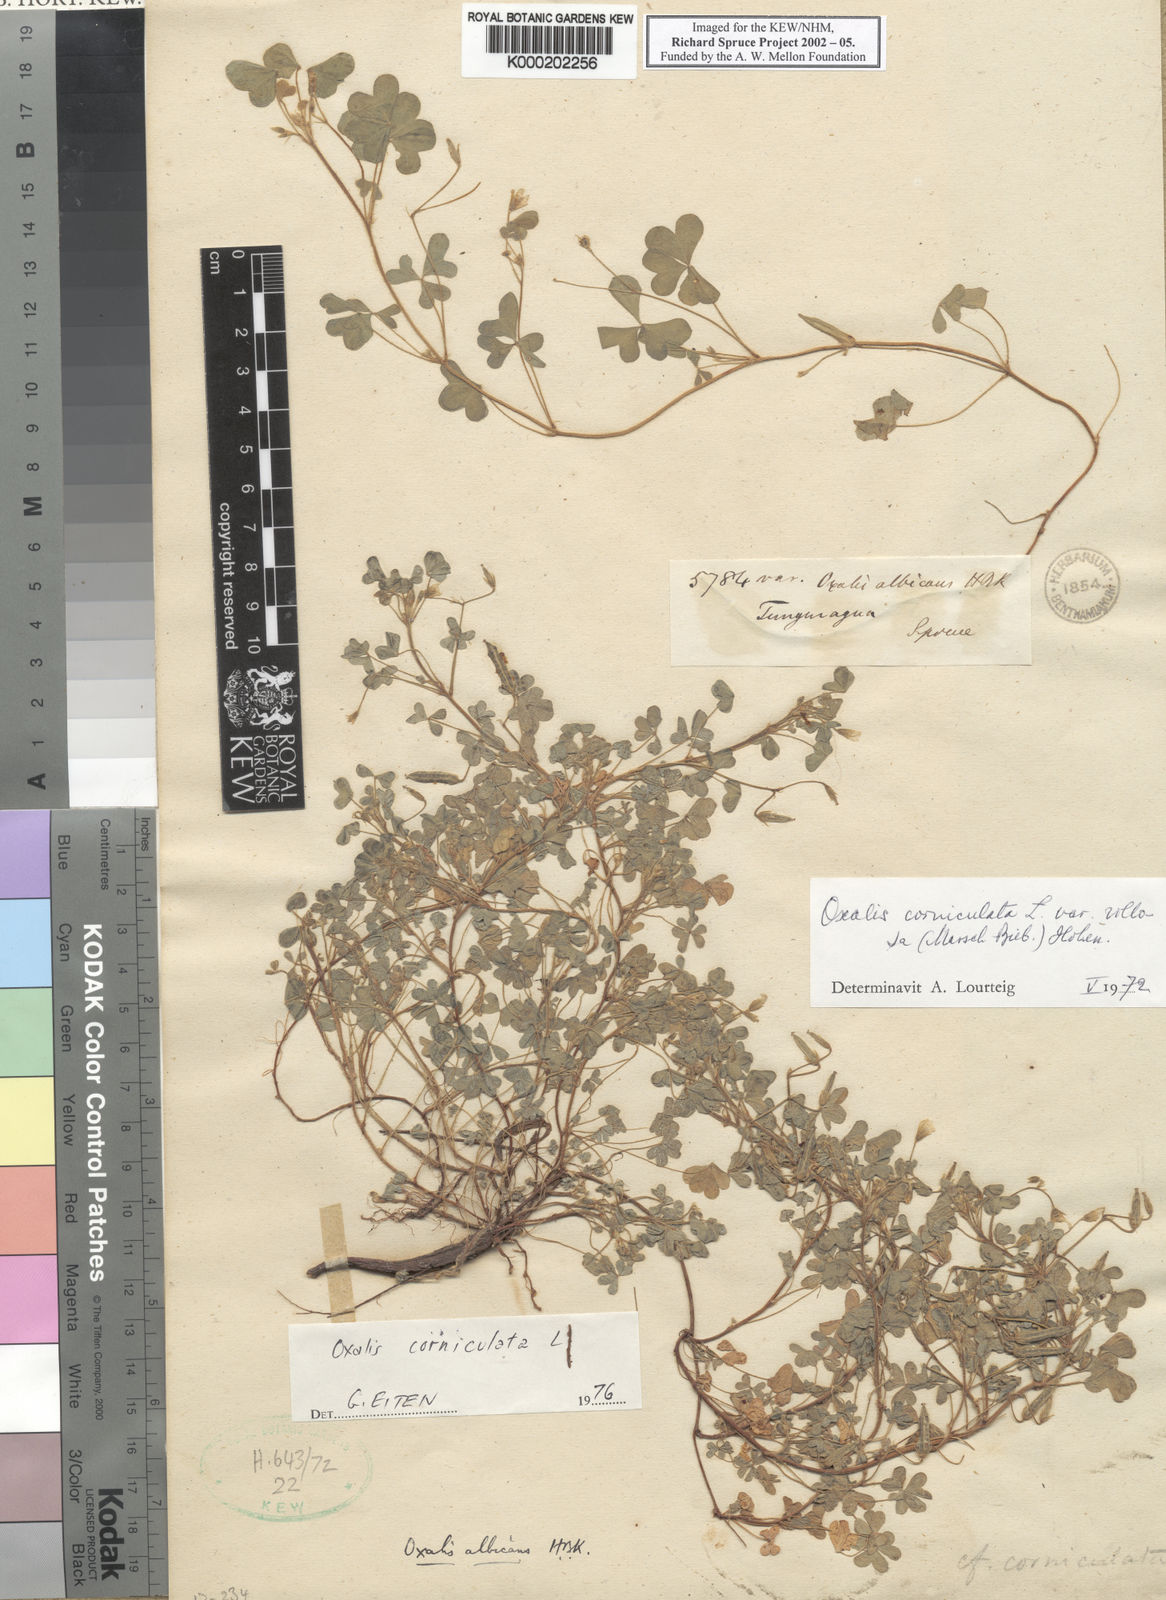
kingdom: Plantae
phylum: Tracheophyta
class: Magnoliopsida
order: Oxalidales
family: Oxalidaceae
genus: Oxalis
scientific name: Oxalis corniculata
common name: Procumbent yellow-sorrel
